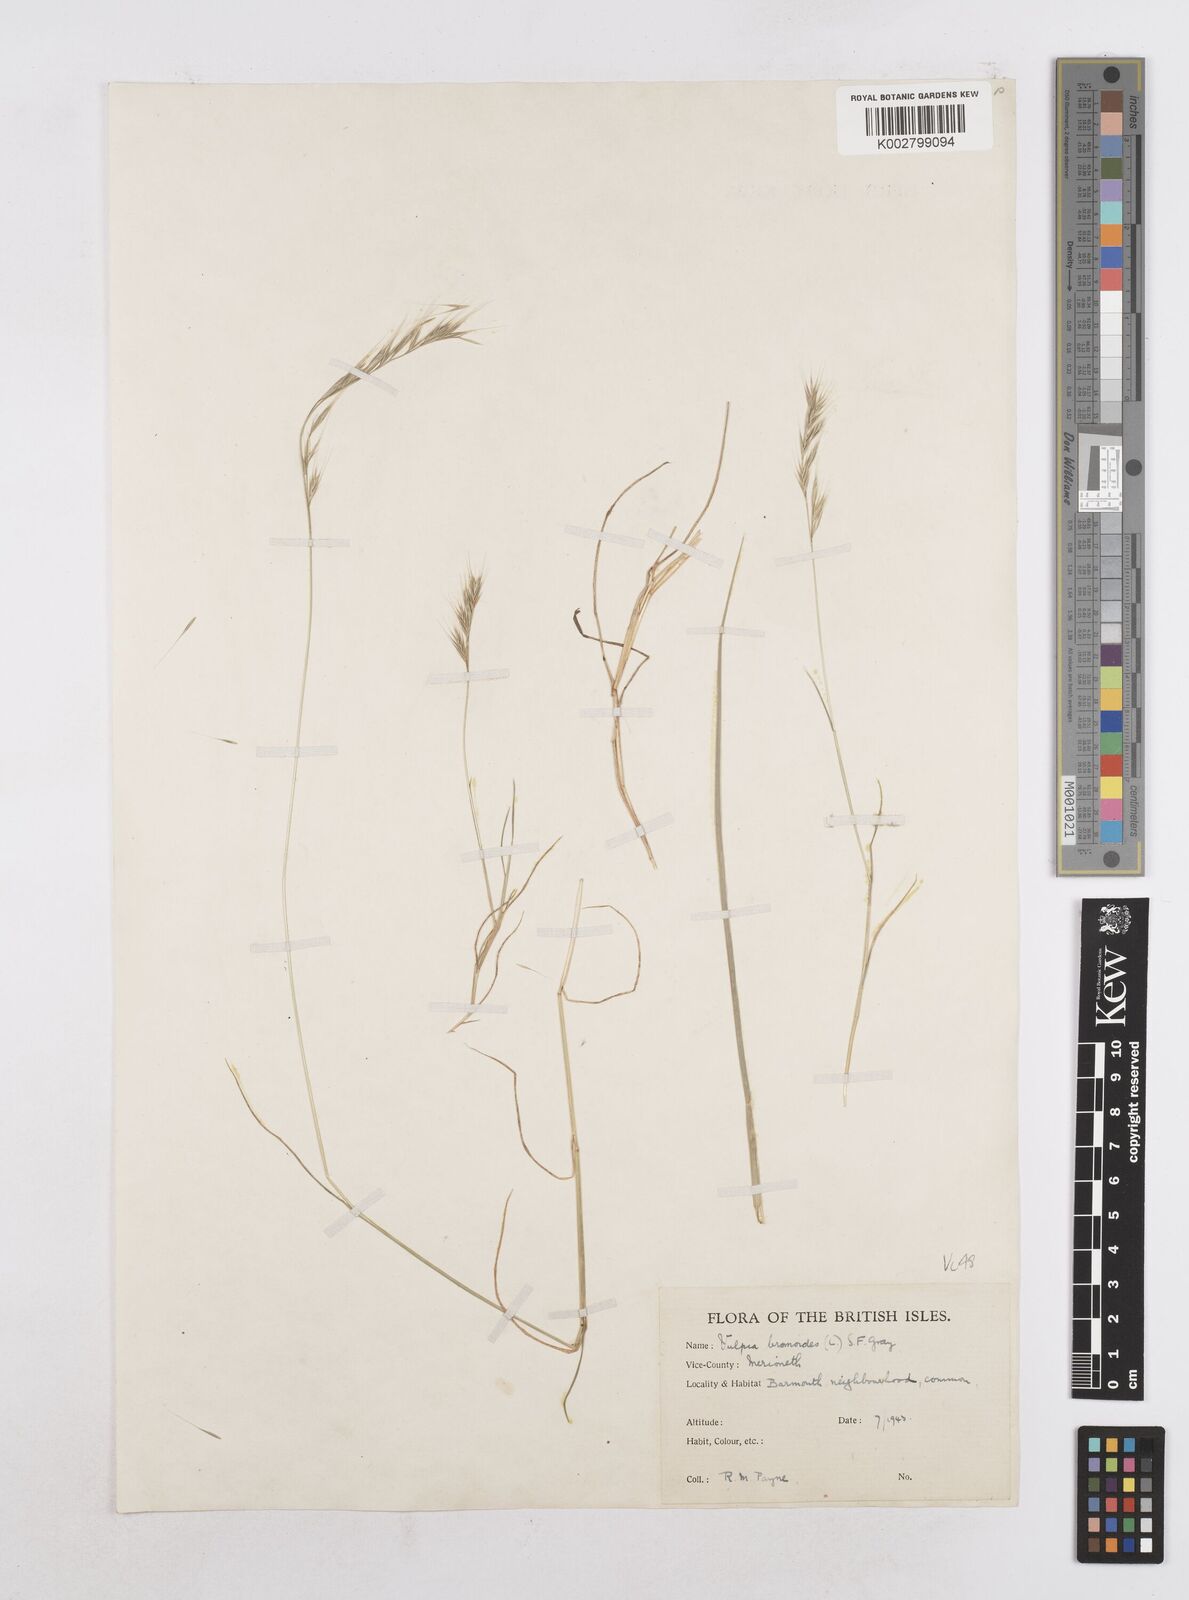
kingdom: Plantae
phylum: Tracheophyta
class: Liliopsida
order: Poales
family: Poaceae
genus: Festuca
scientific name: Festuca bromoides
